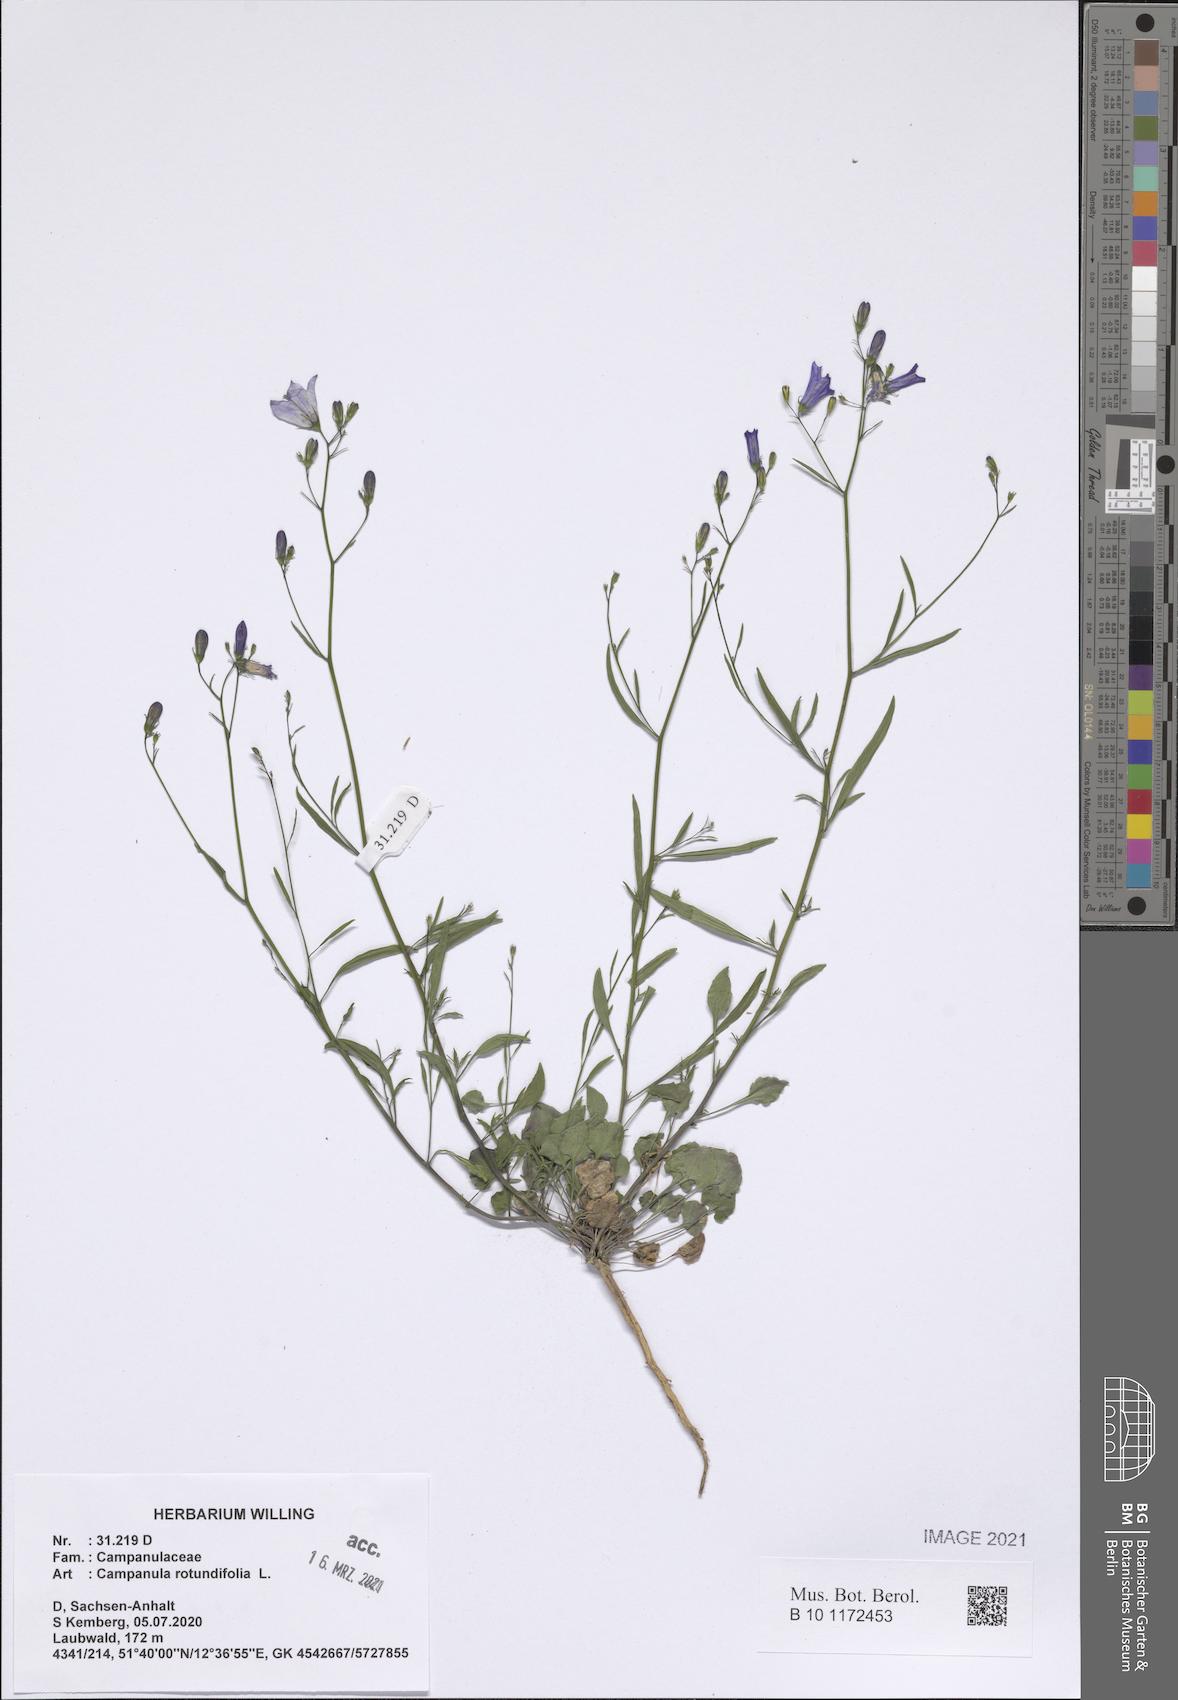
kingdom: Plantae
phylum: Tracheophyta
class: Magnoliopsida
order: Asterales
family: Campanulaceae
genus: Campanula
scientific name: Campanula rotundifolia
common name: Harebell
